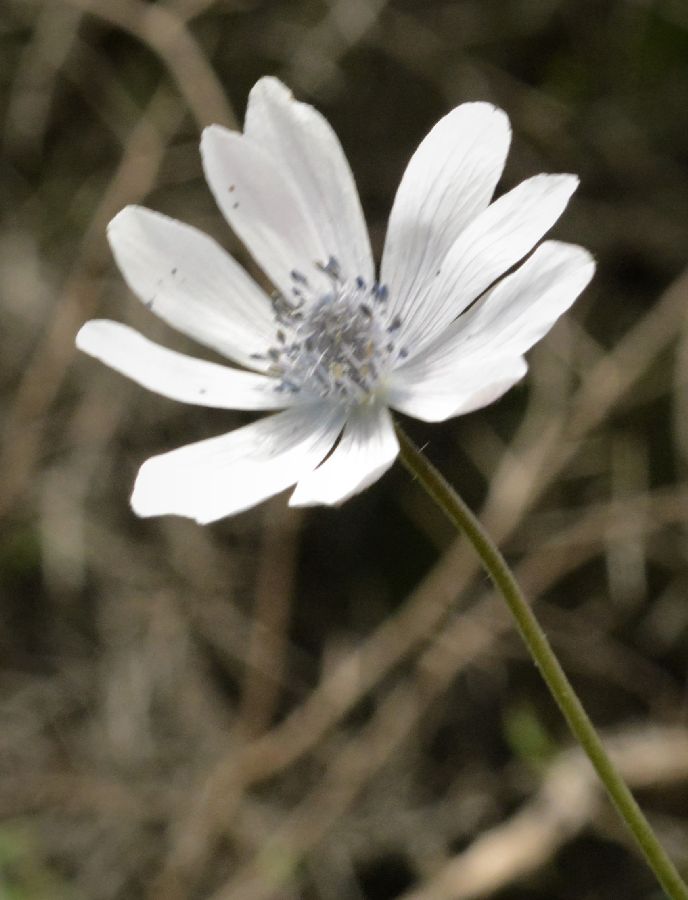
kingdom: Plantae
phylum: Tracheophyta
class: Magnoliopsida
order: Ranunculales
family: Ranunculaceae
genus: Anemone
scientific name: Anemone hortensis
